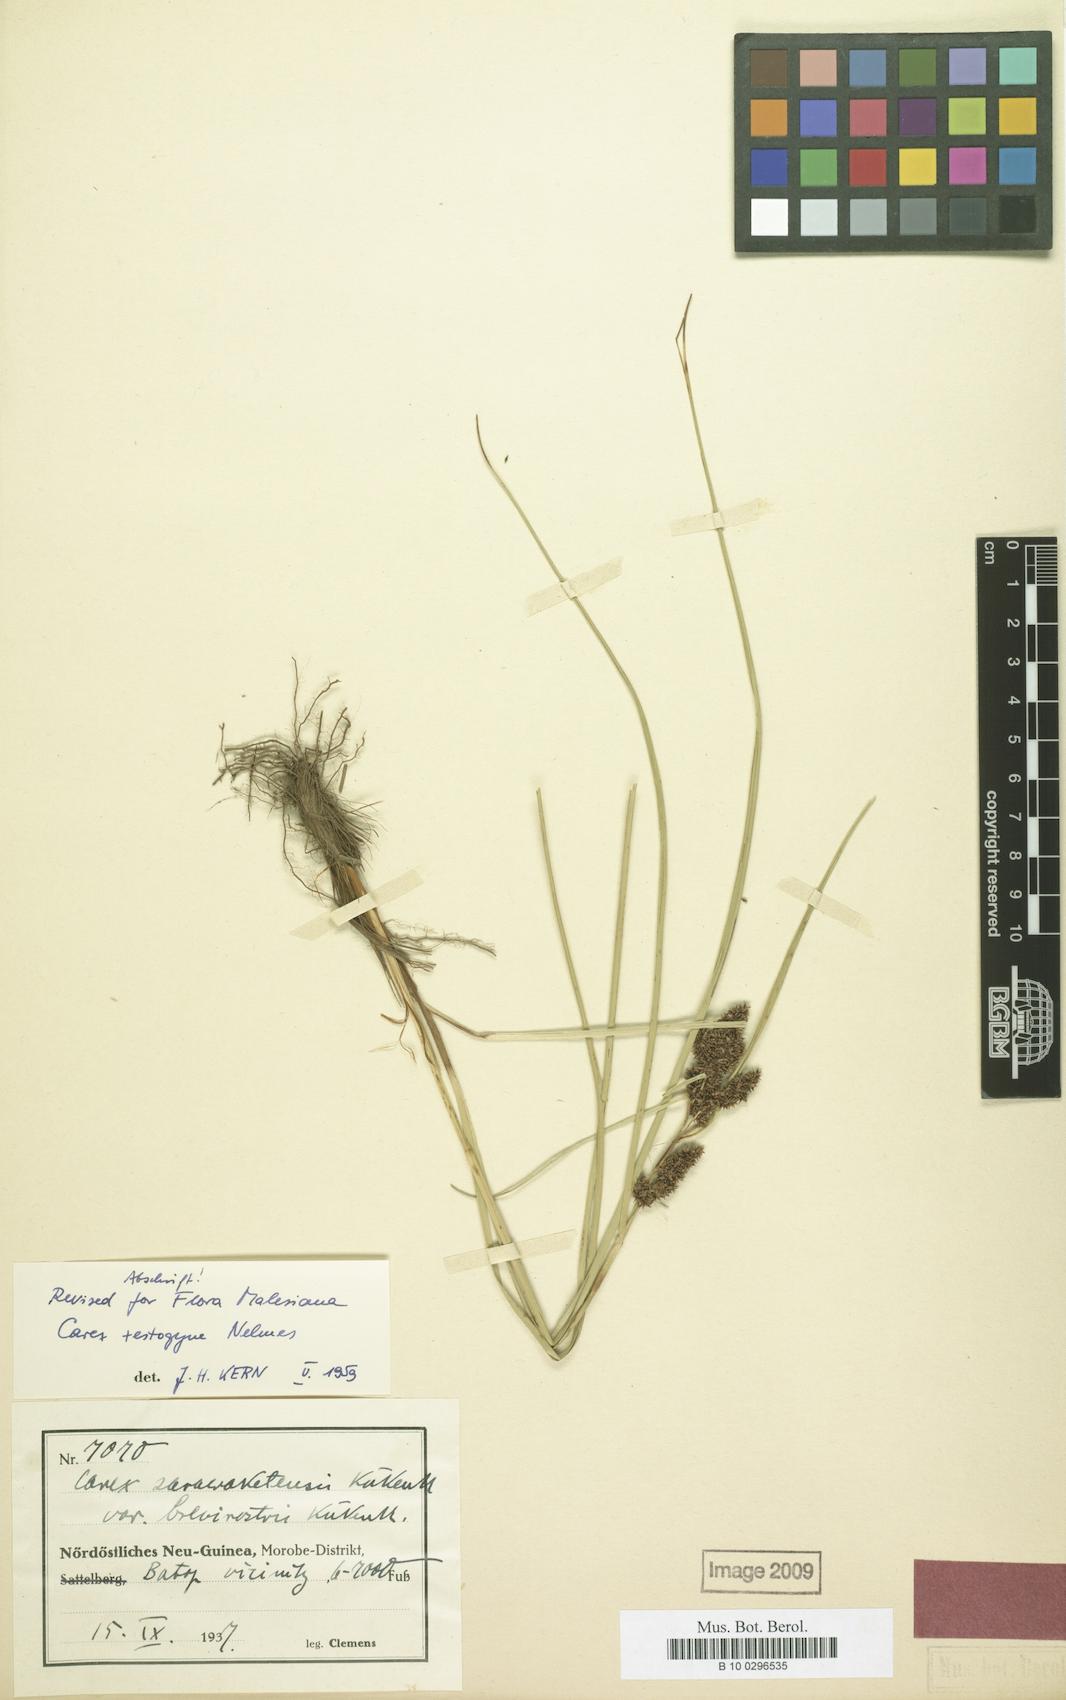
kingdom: Plantae
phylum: Tracheophyta
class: Liliopsida
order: Poales
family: Cyperaceae
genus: Carex
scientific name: Carex rafflesiana
